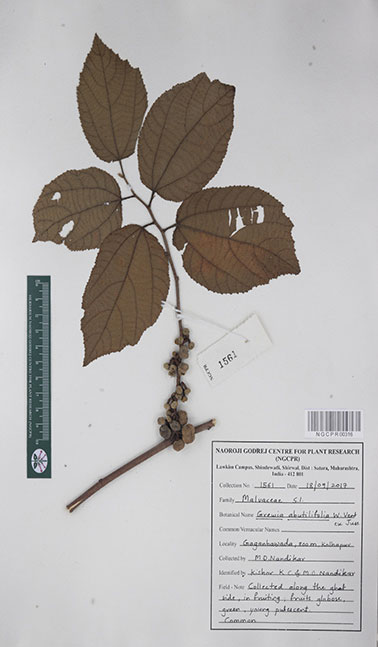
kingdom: Plantae
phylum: Tracheophyta
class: Magnoliopsida
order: Malvales
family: Malvaceae
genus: Grewia
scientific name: Grewia abutilifolia
